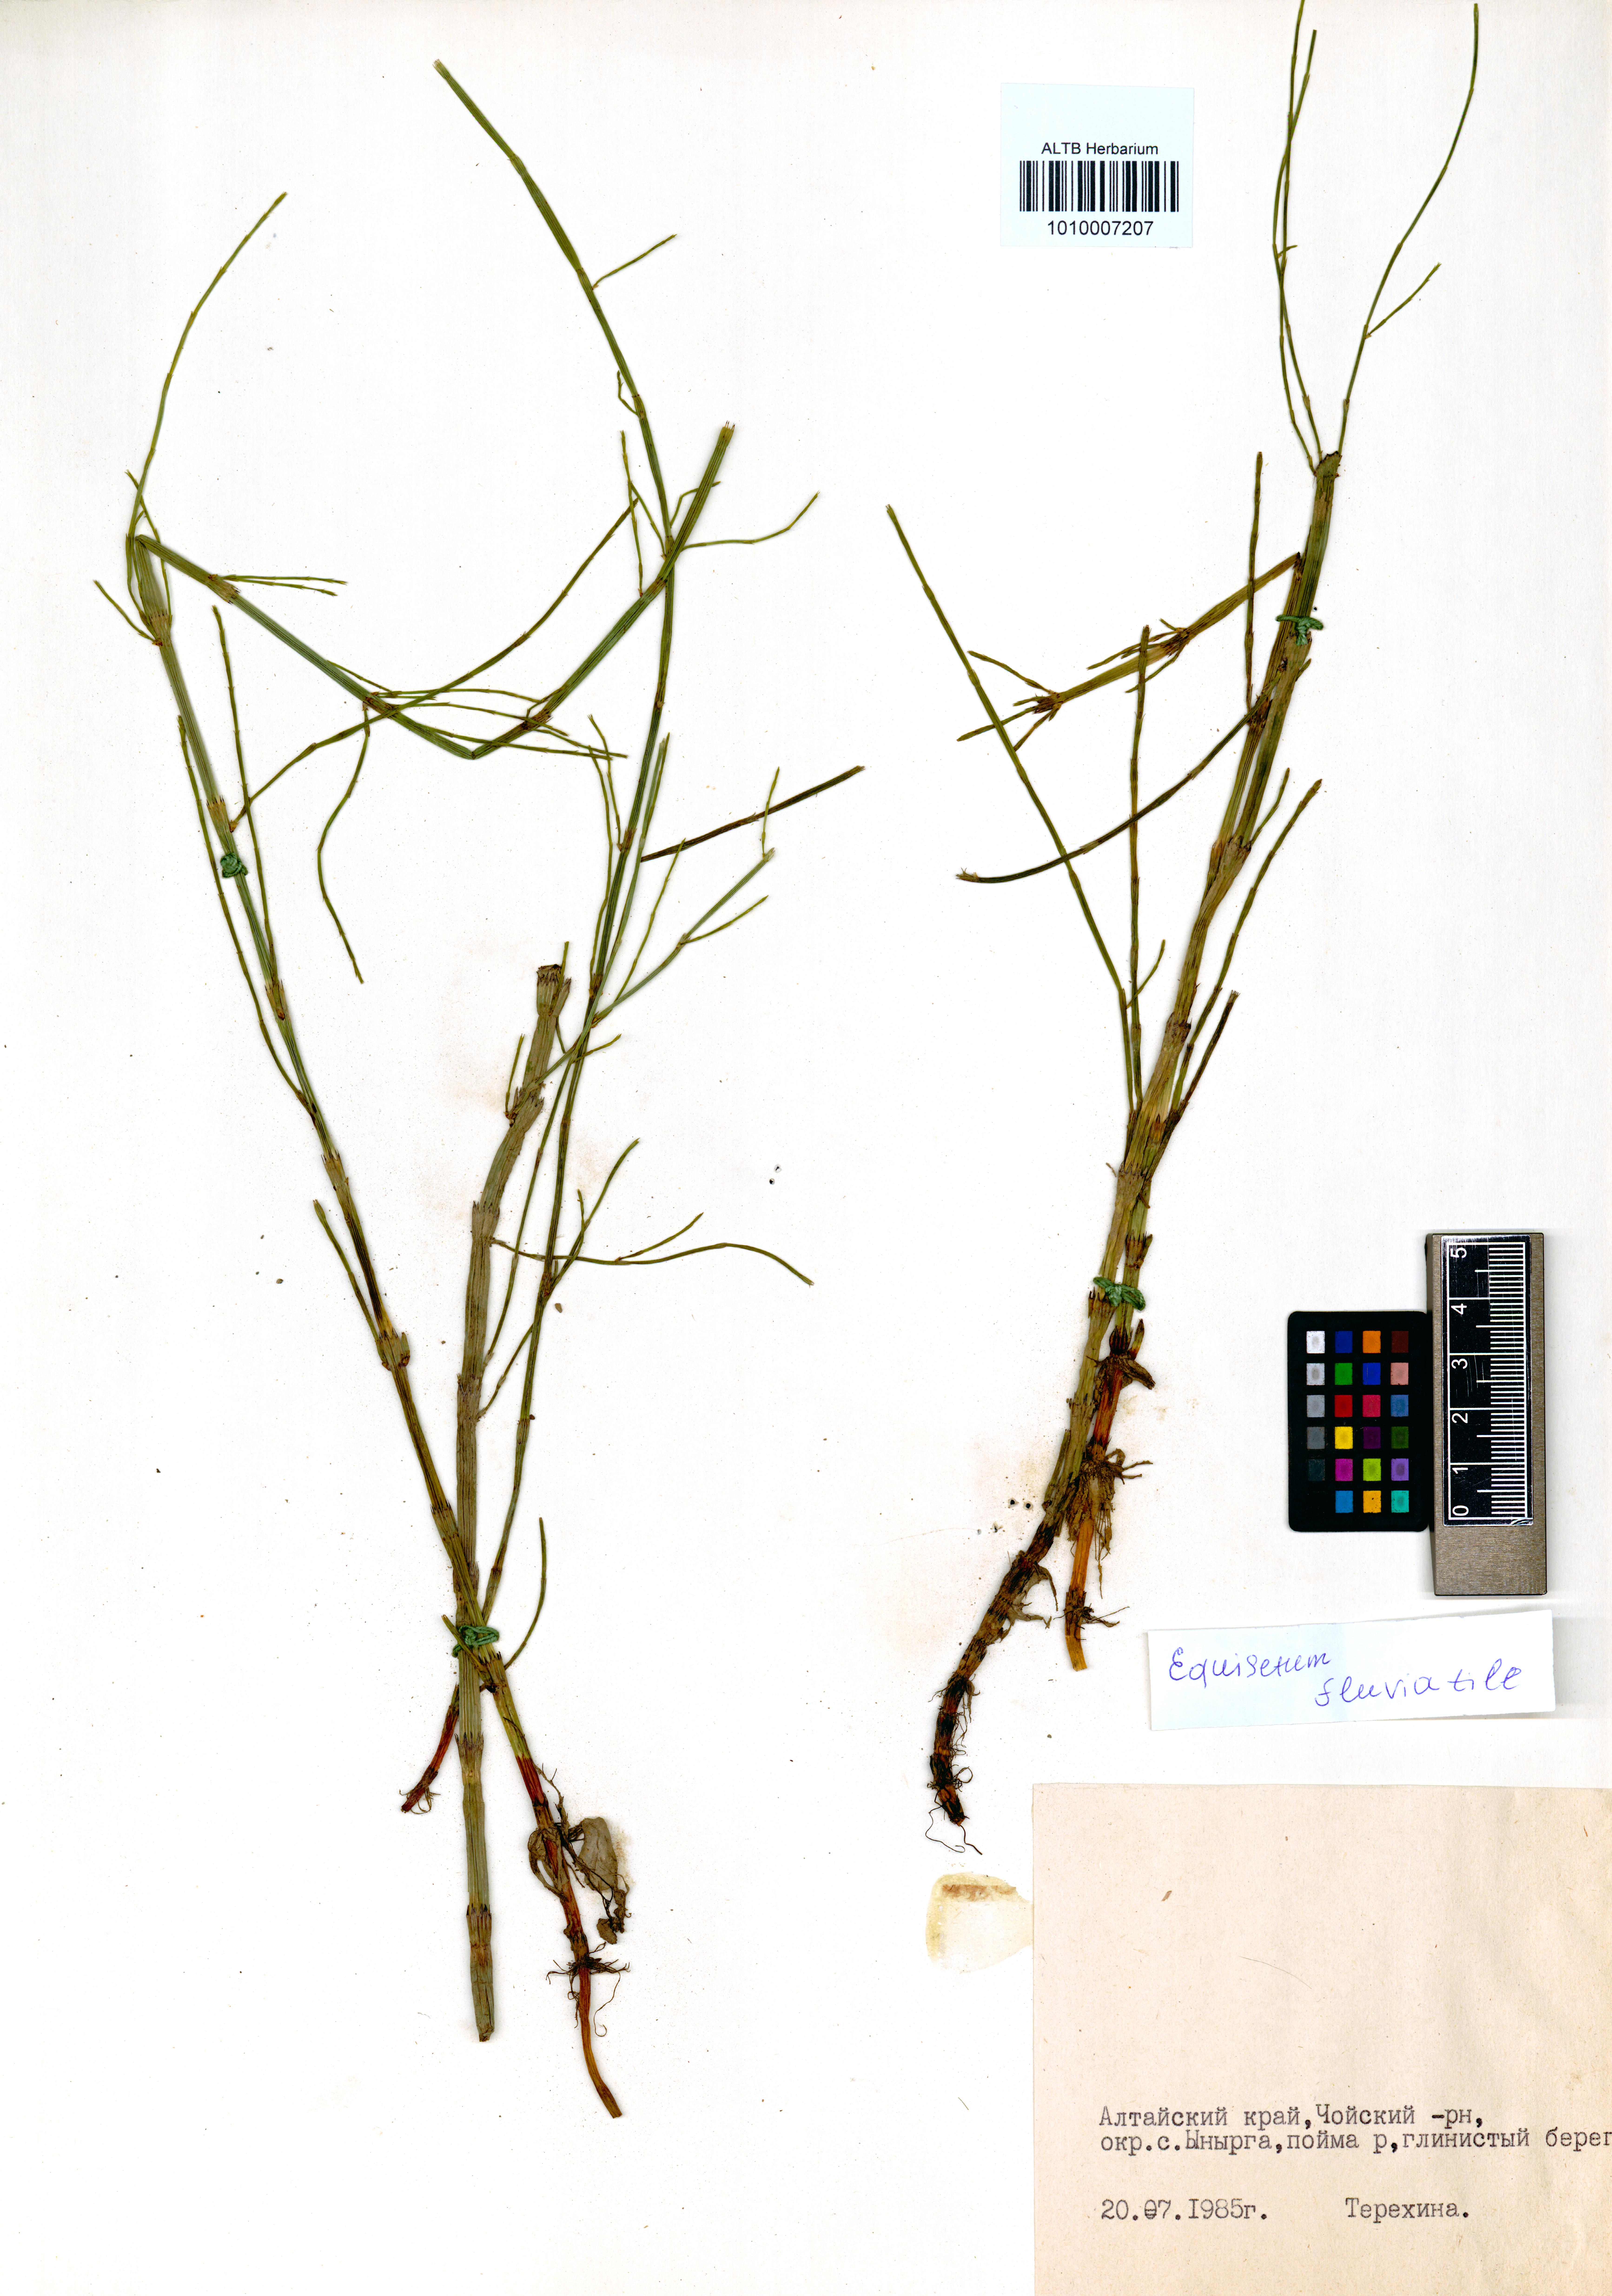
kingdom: Plantae
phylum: Tracheophyta
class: Polypodiopsida
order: Equisetales
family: Equisetaceae
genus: Equisetum
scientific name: Equisetum fluviatile
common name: Water horsetail
